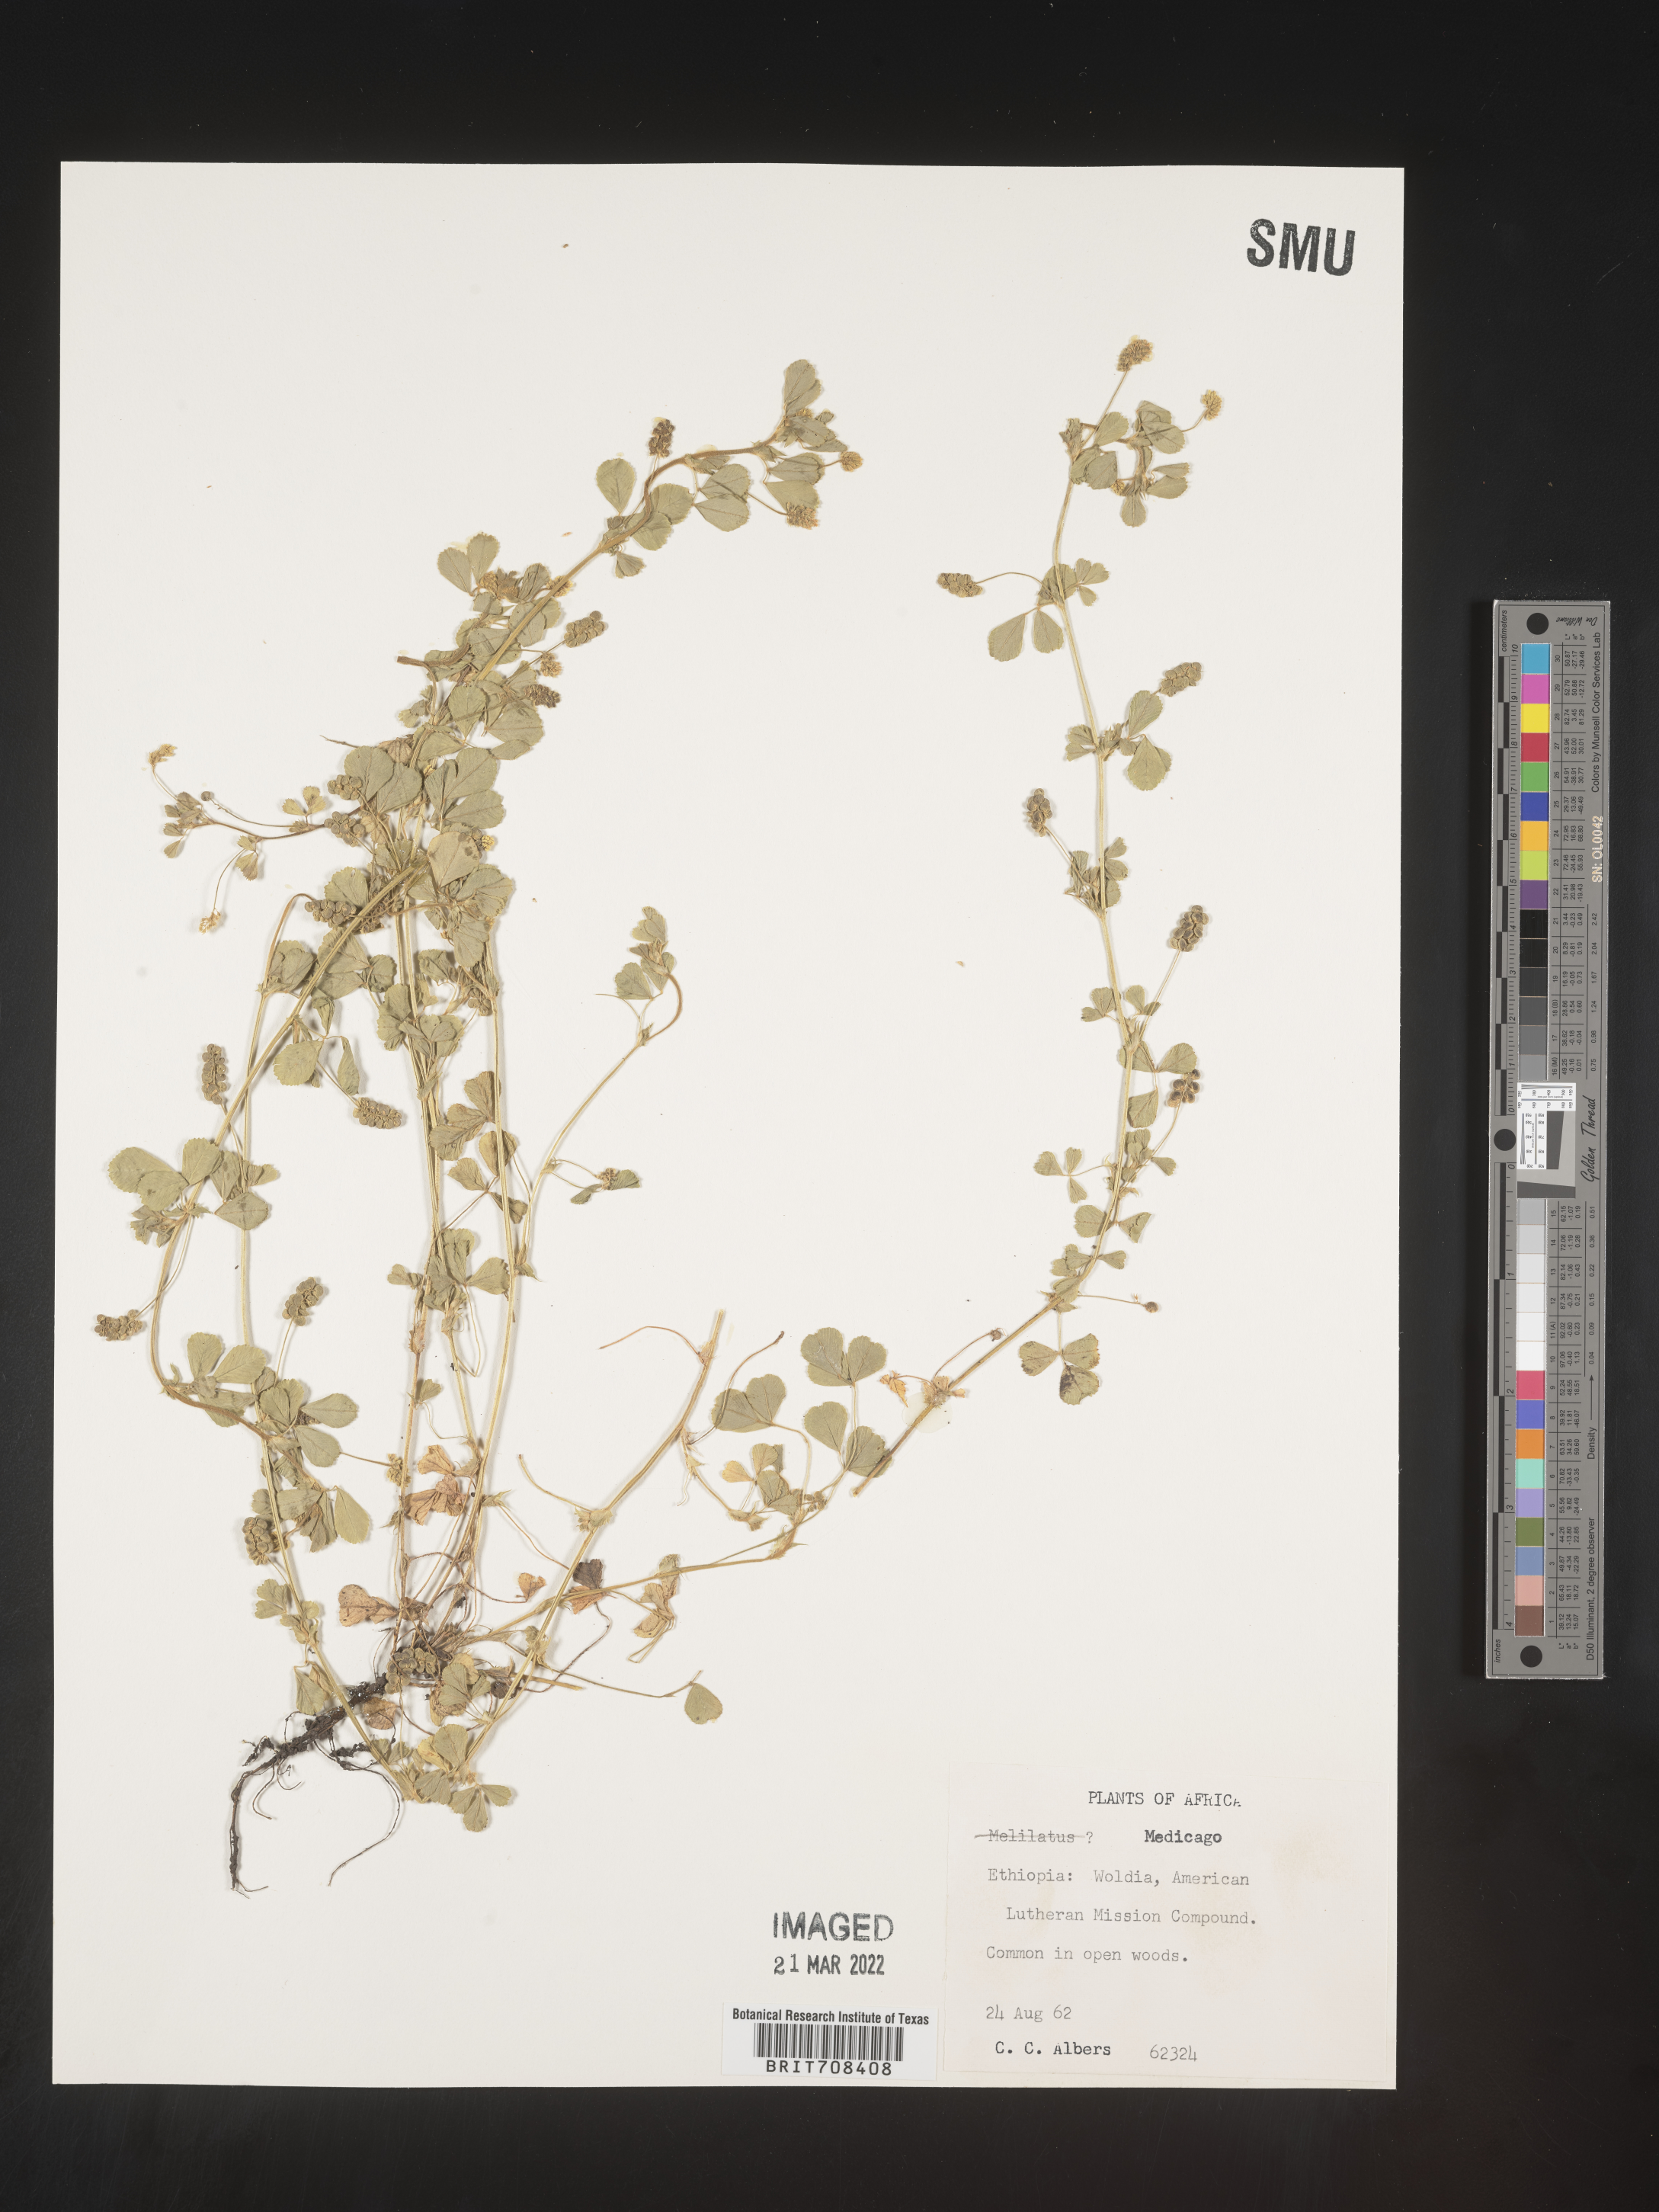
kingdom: Plantae
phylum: Tracheophyta
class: Magnoliopsida
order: Fabales
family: Fabaceae
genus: Medicago
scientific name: Medicago
